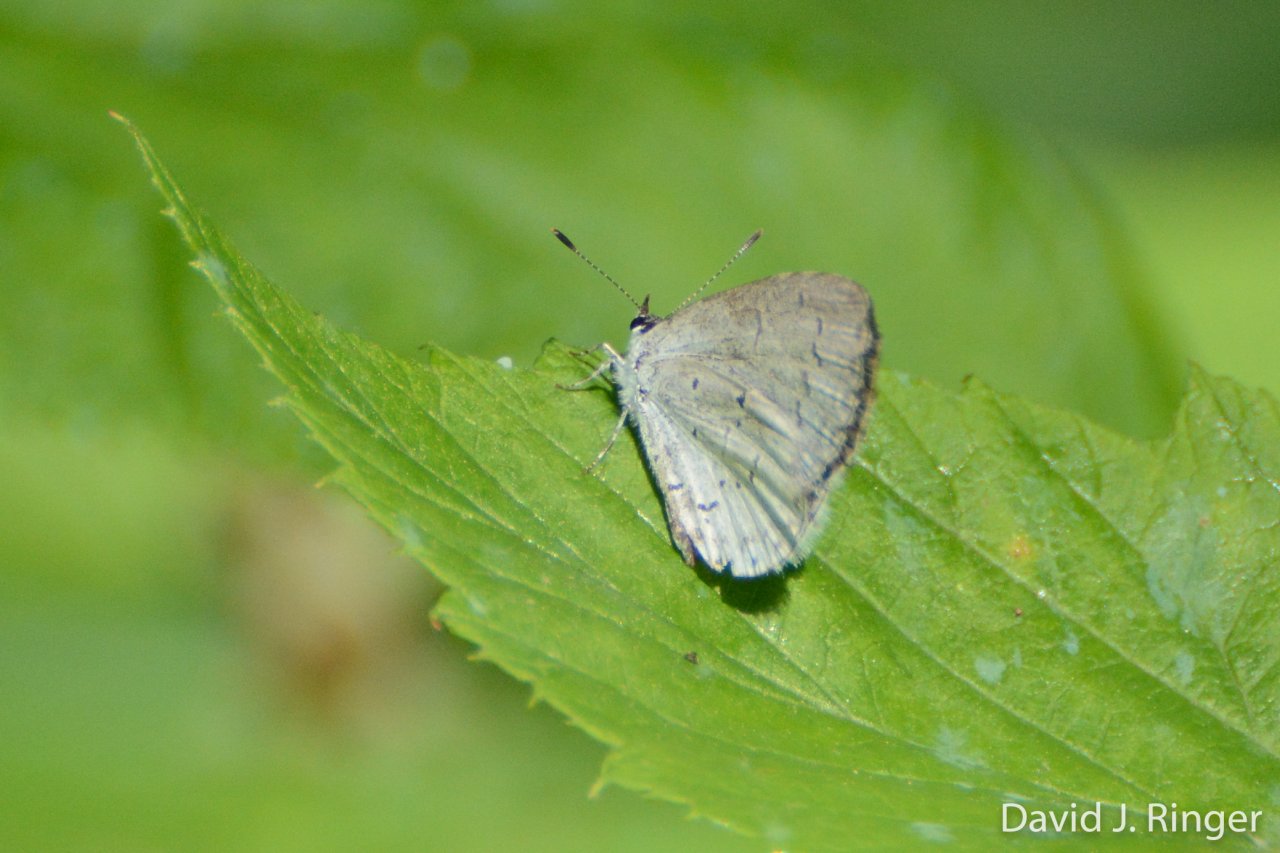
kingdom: Animalia
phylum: Arthropoda
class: Insecta
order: Lepidoptera
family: Lycaenidae
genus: Cyaniris
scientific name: Cyaniris neglecta
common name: Summer Azure
